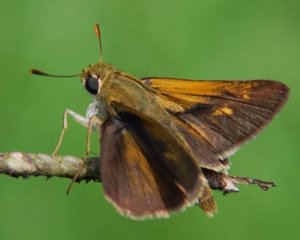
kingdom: Animalia
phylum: Arthropoda
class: Insecta
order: Lepidoptera
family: Hesperiidae
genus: Polites
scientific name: Polites
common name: Crossline Skipper
